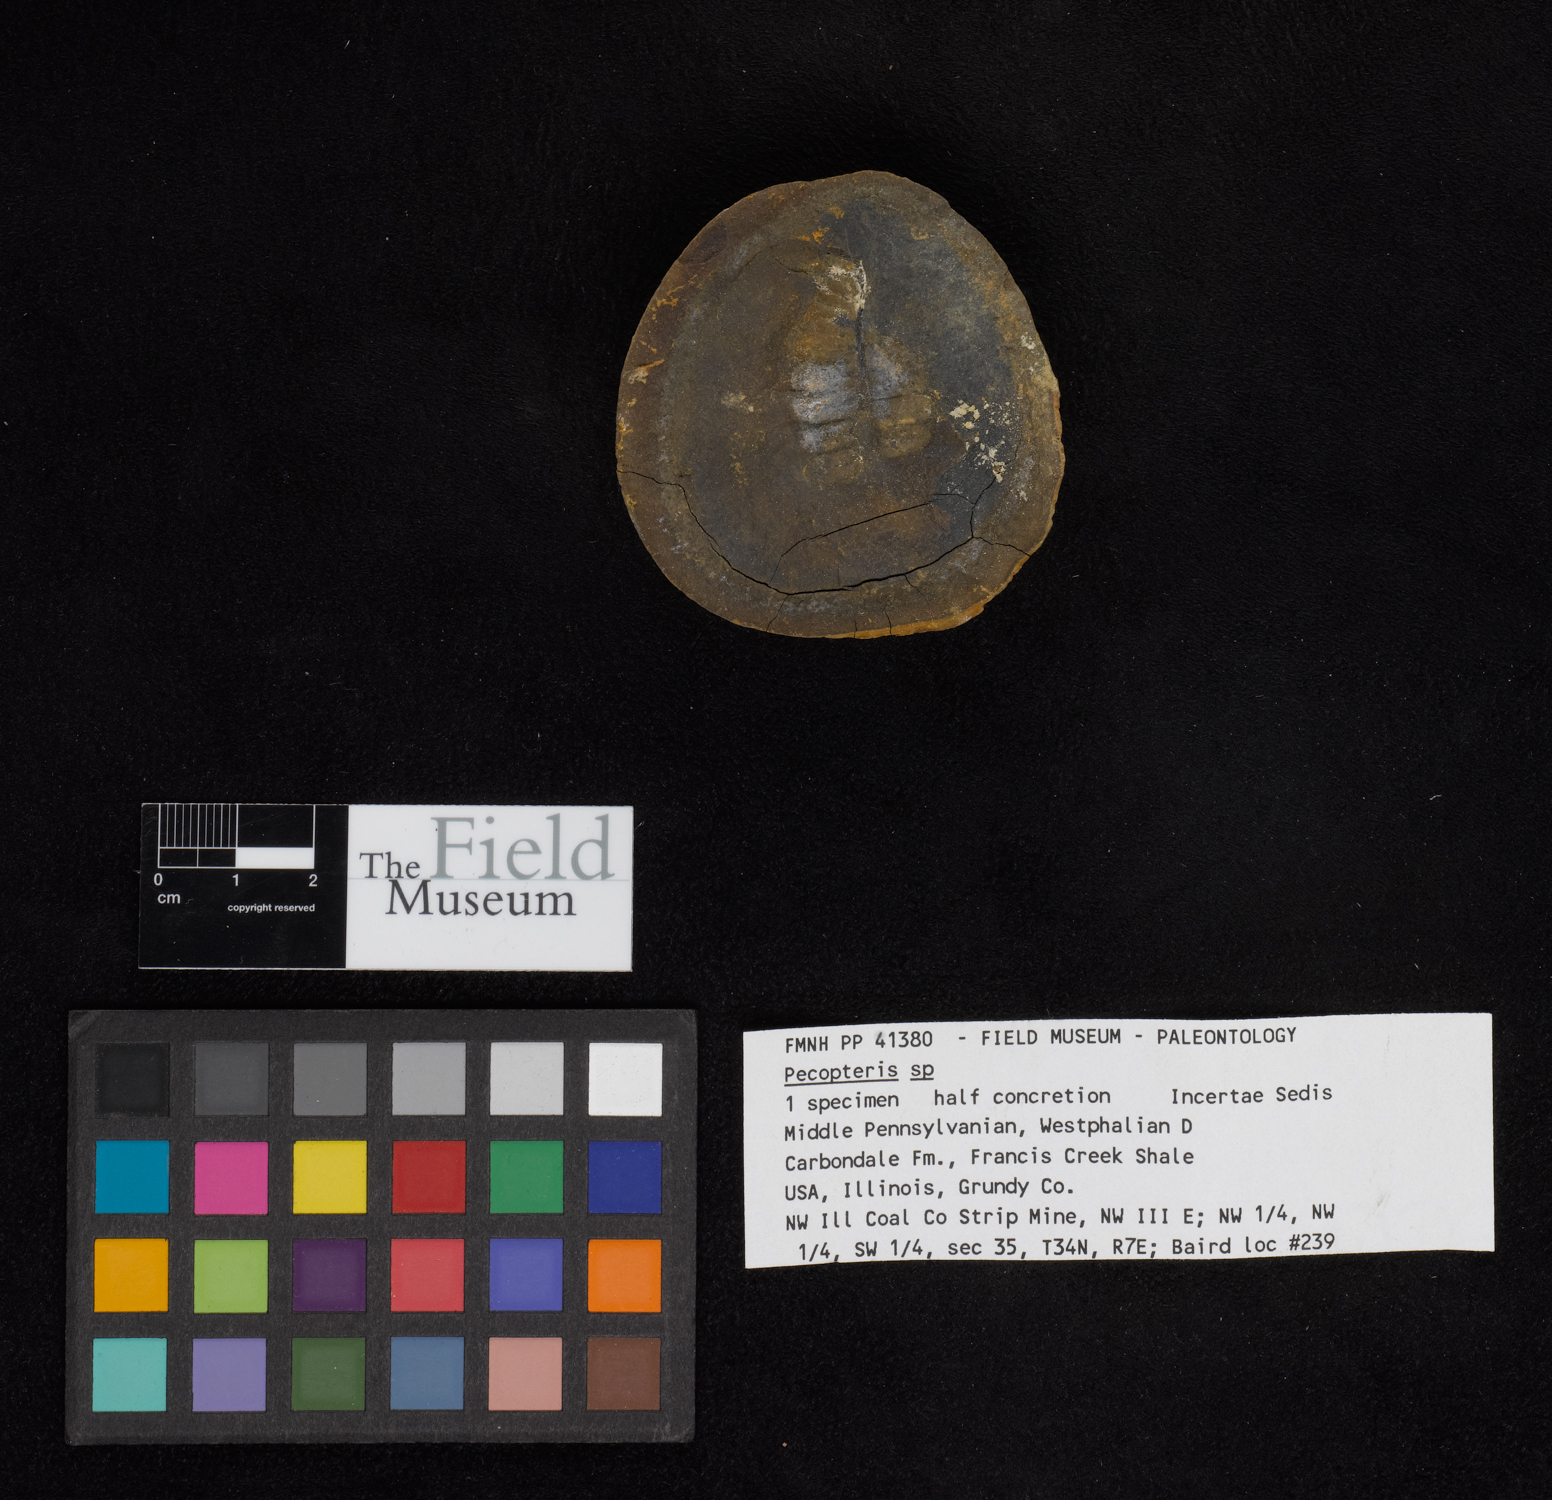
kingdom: Plantae
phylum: Tracheophyta
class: Polypodiopsida
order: Marattiales
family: Asterothecaceae
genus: Pecopteris
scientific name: Pecopteris
